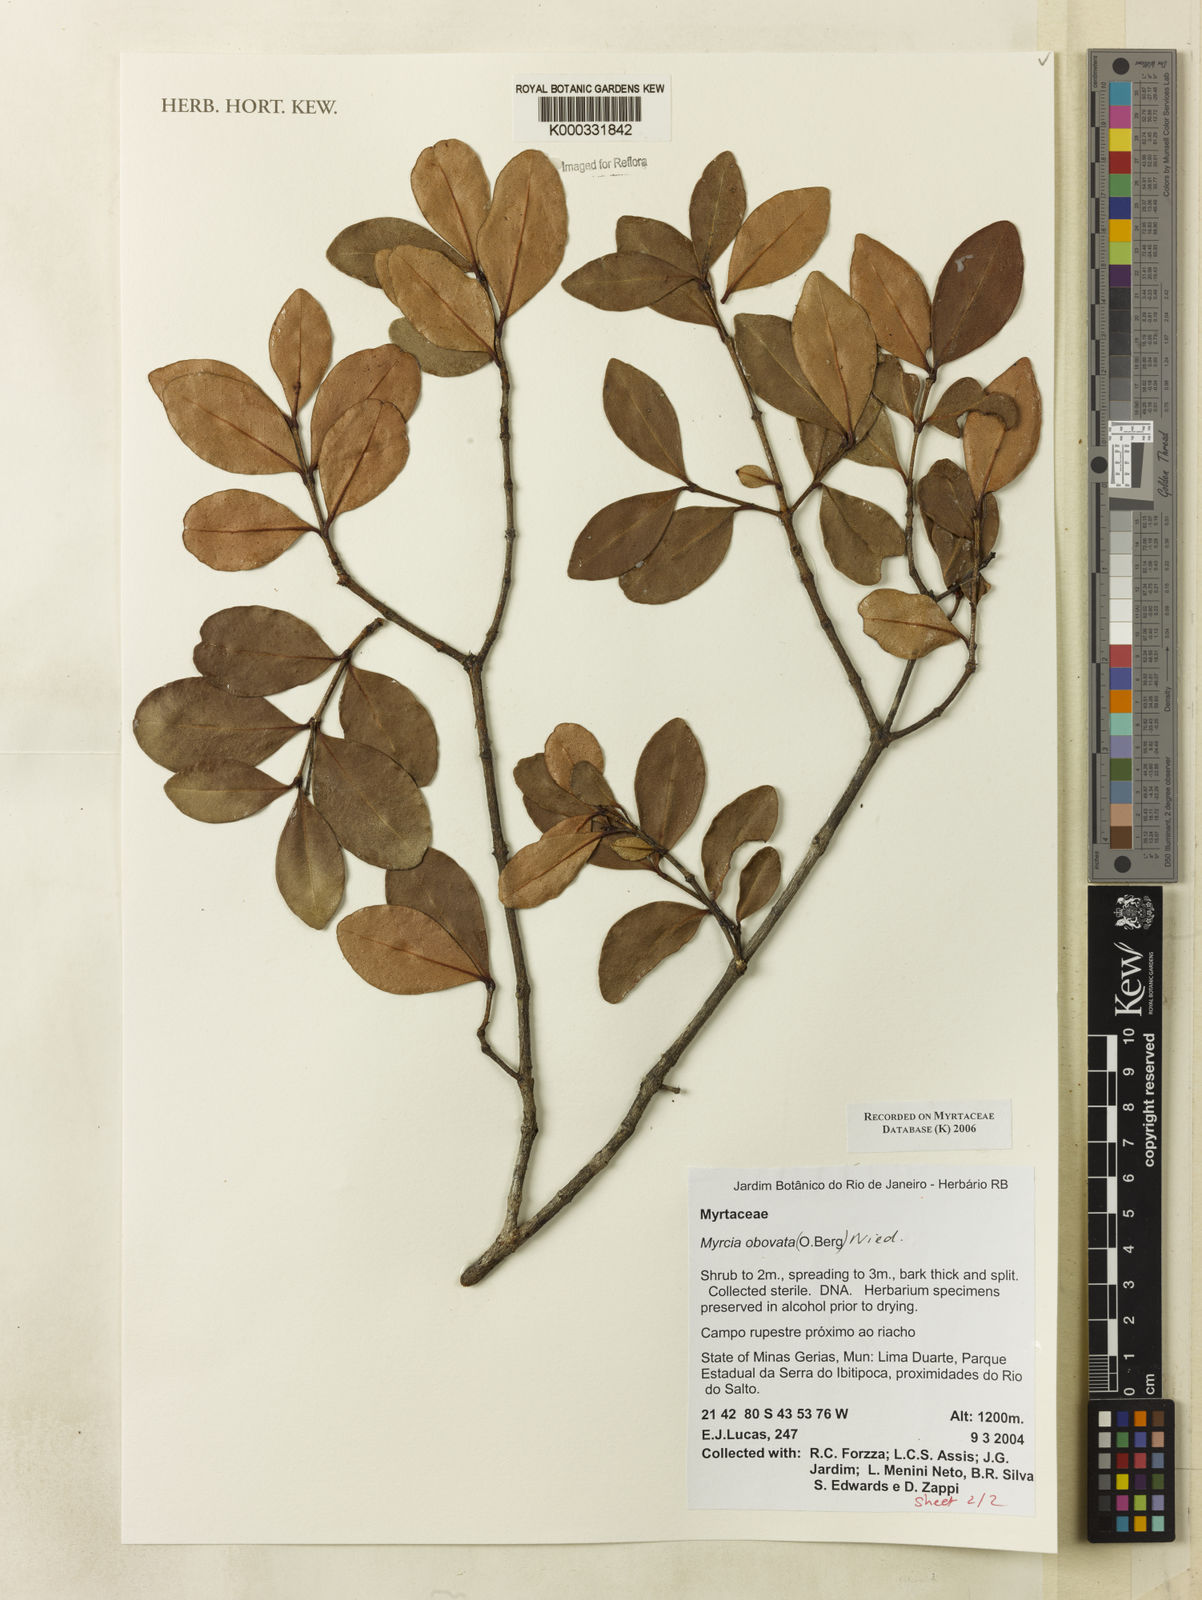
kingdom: Plantae
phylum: Tracheophyta
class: Magnoliopsida
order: Myrtales
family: Myrtaceae
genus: Myrcia
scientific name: Myrcia obovata
